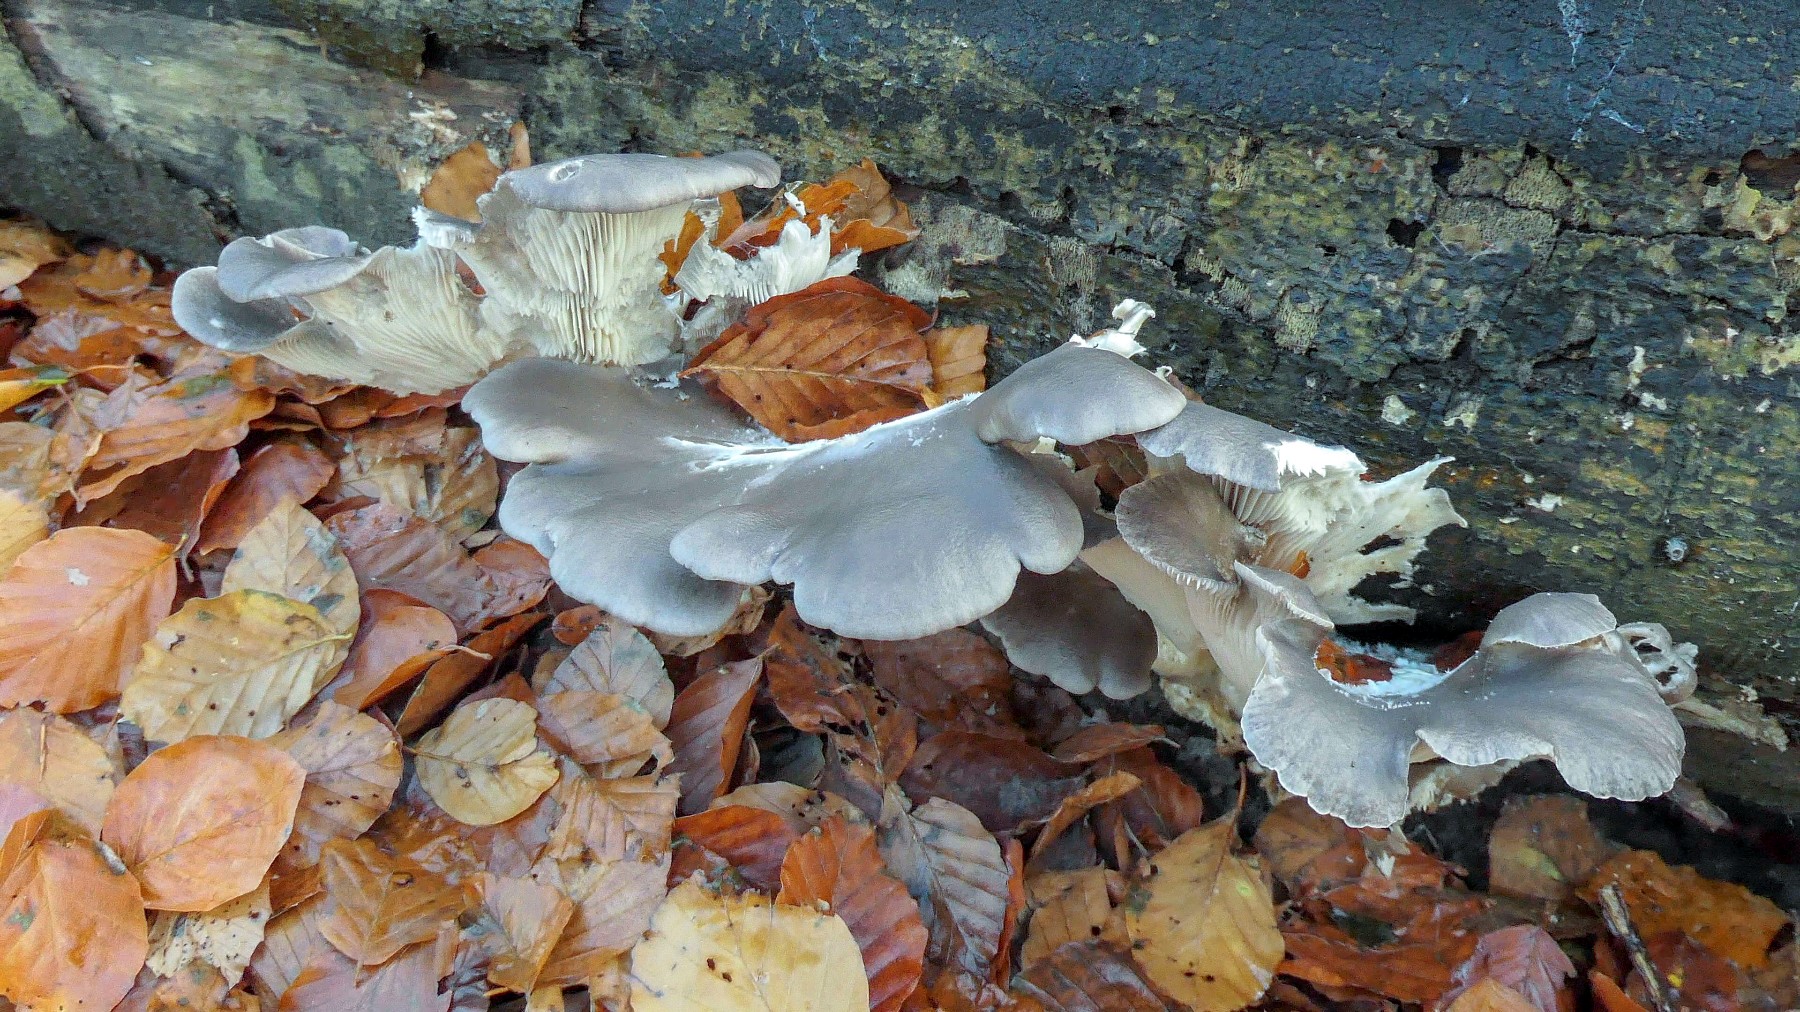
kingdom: Fungi
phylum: Basidiomycota
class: Agaricomycetes
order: Agaricales
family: Pleurotaceae
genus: Pleurotus
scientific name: Pleurotus ostreatus
